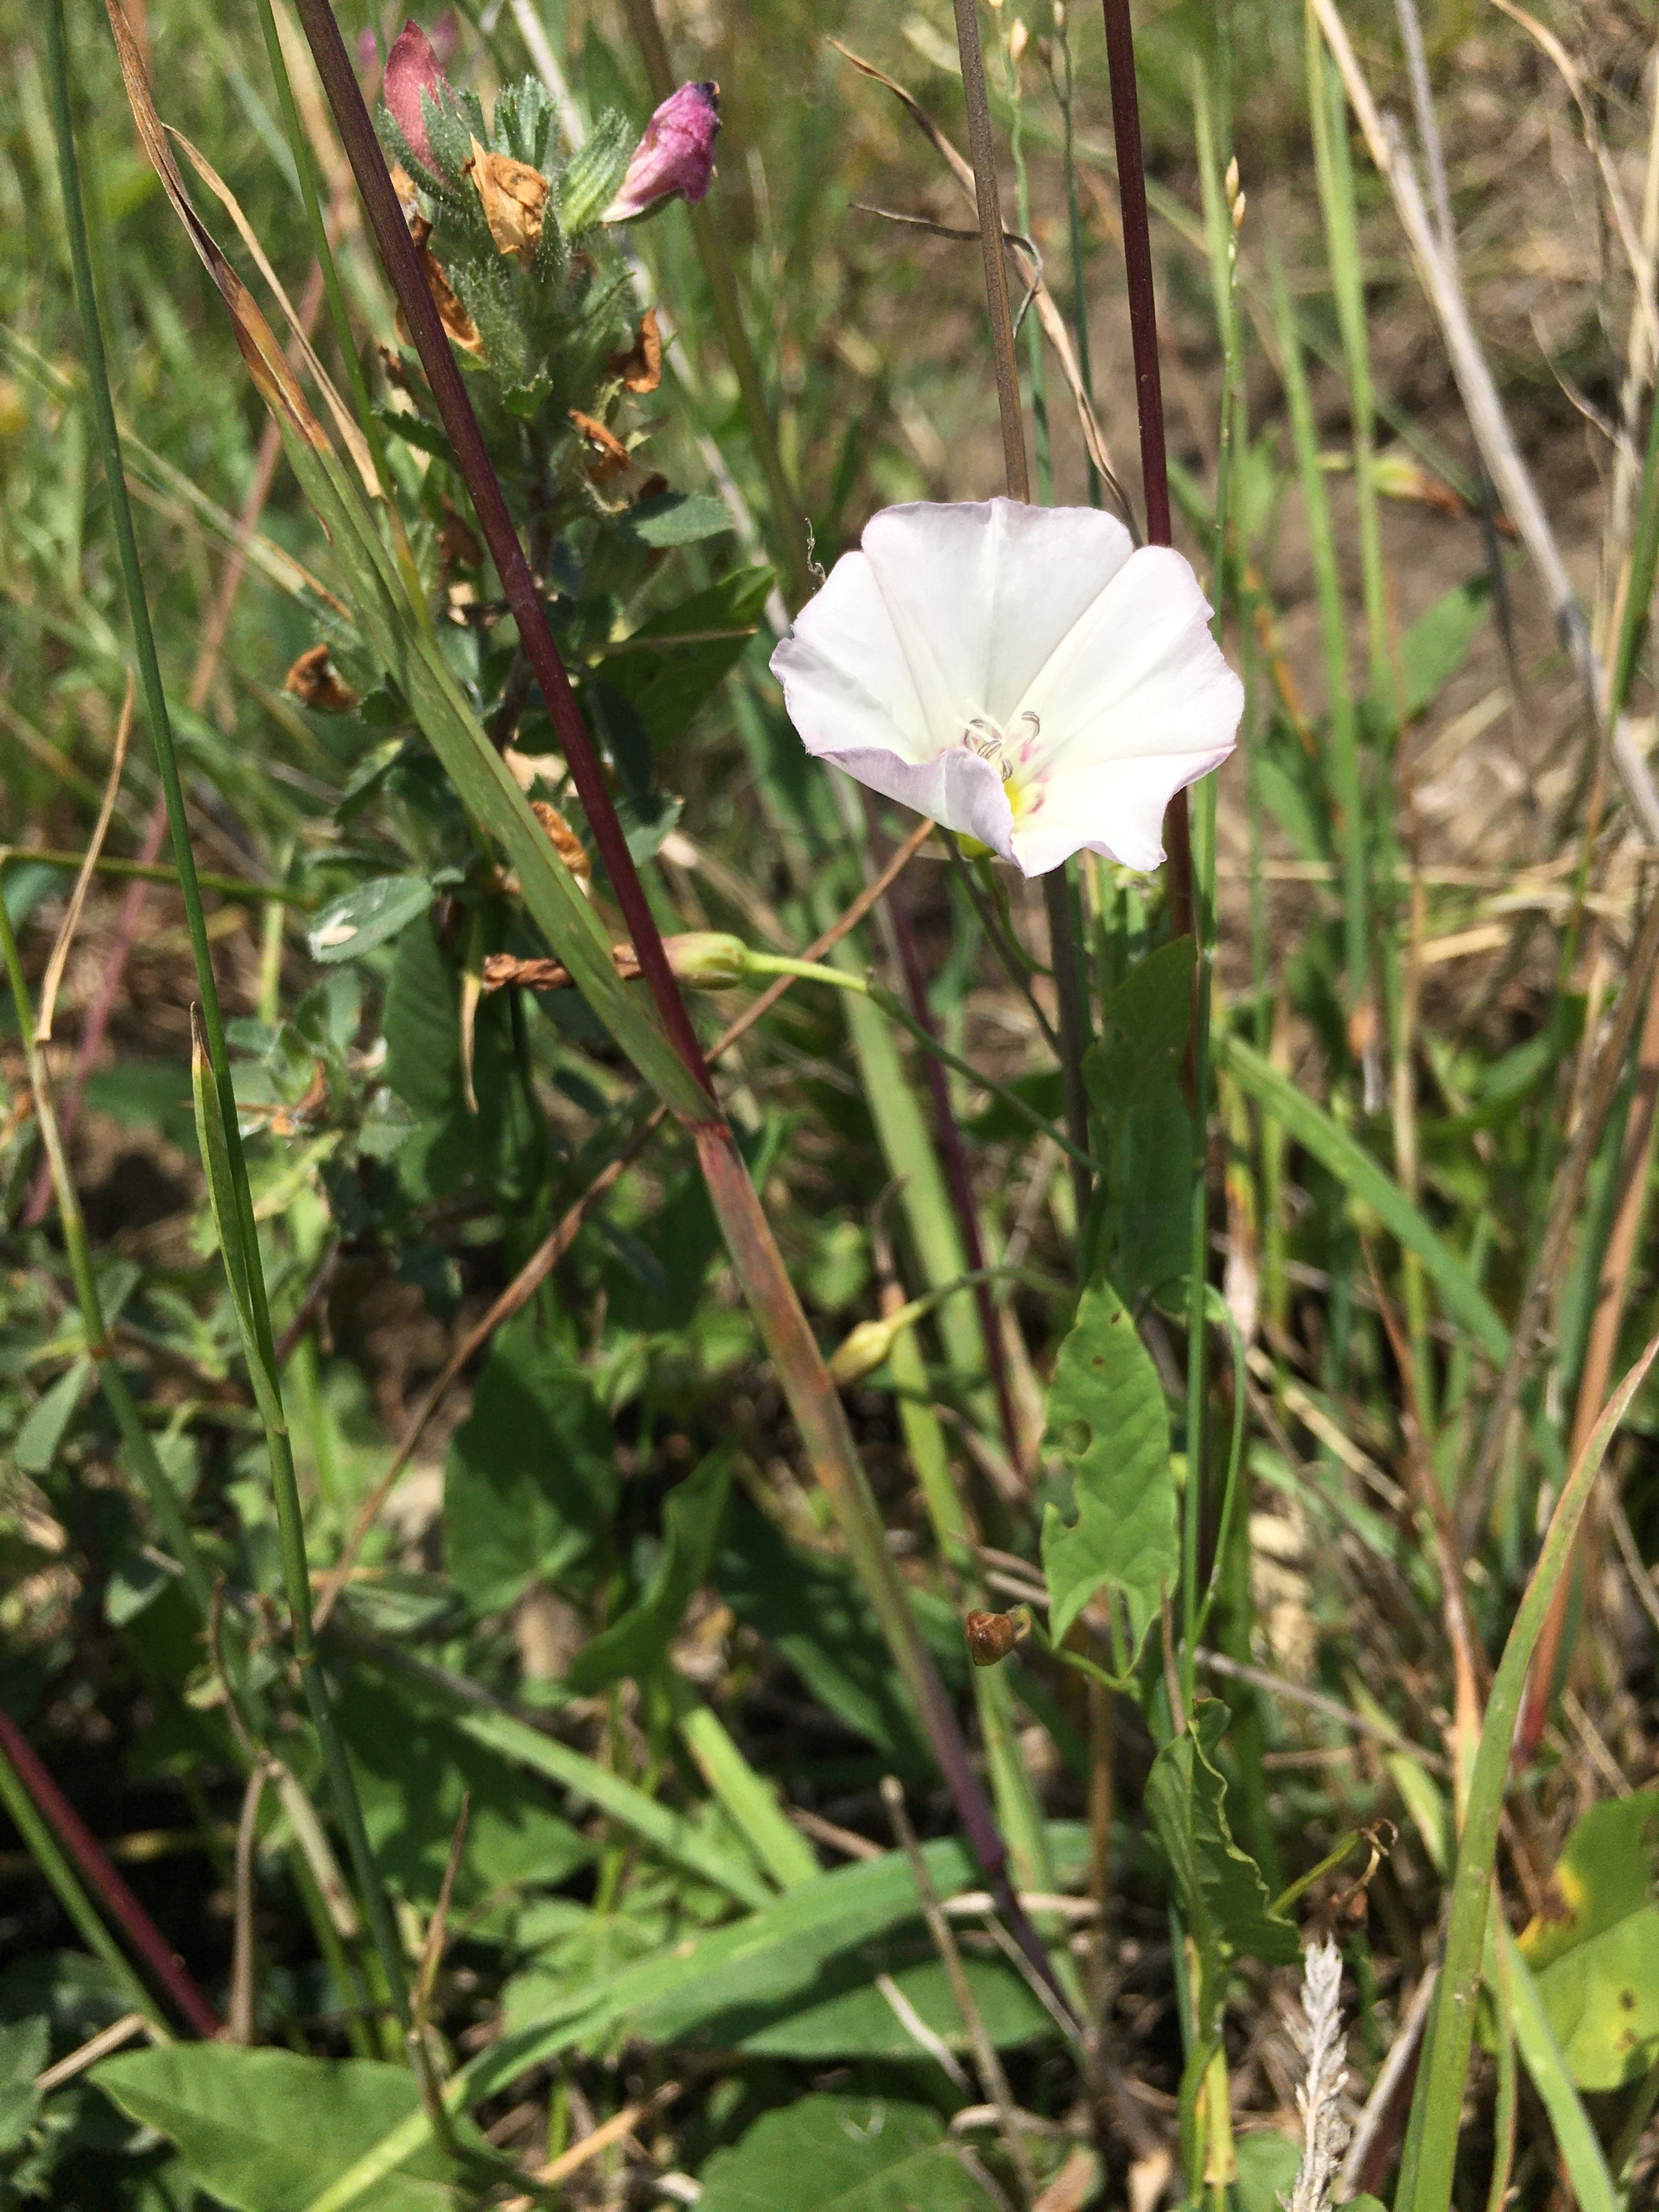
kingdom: Plantae
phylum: Tracheophyta
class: Magnoliopsida
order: Solanales
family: Convolvulaceae
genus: Convolvulus
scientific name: Convolvulus arvensis
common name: Ager-snerle
